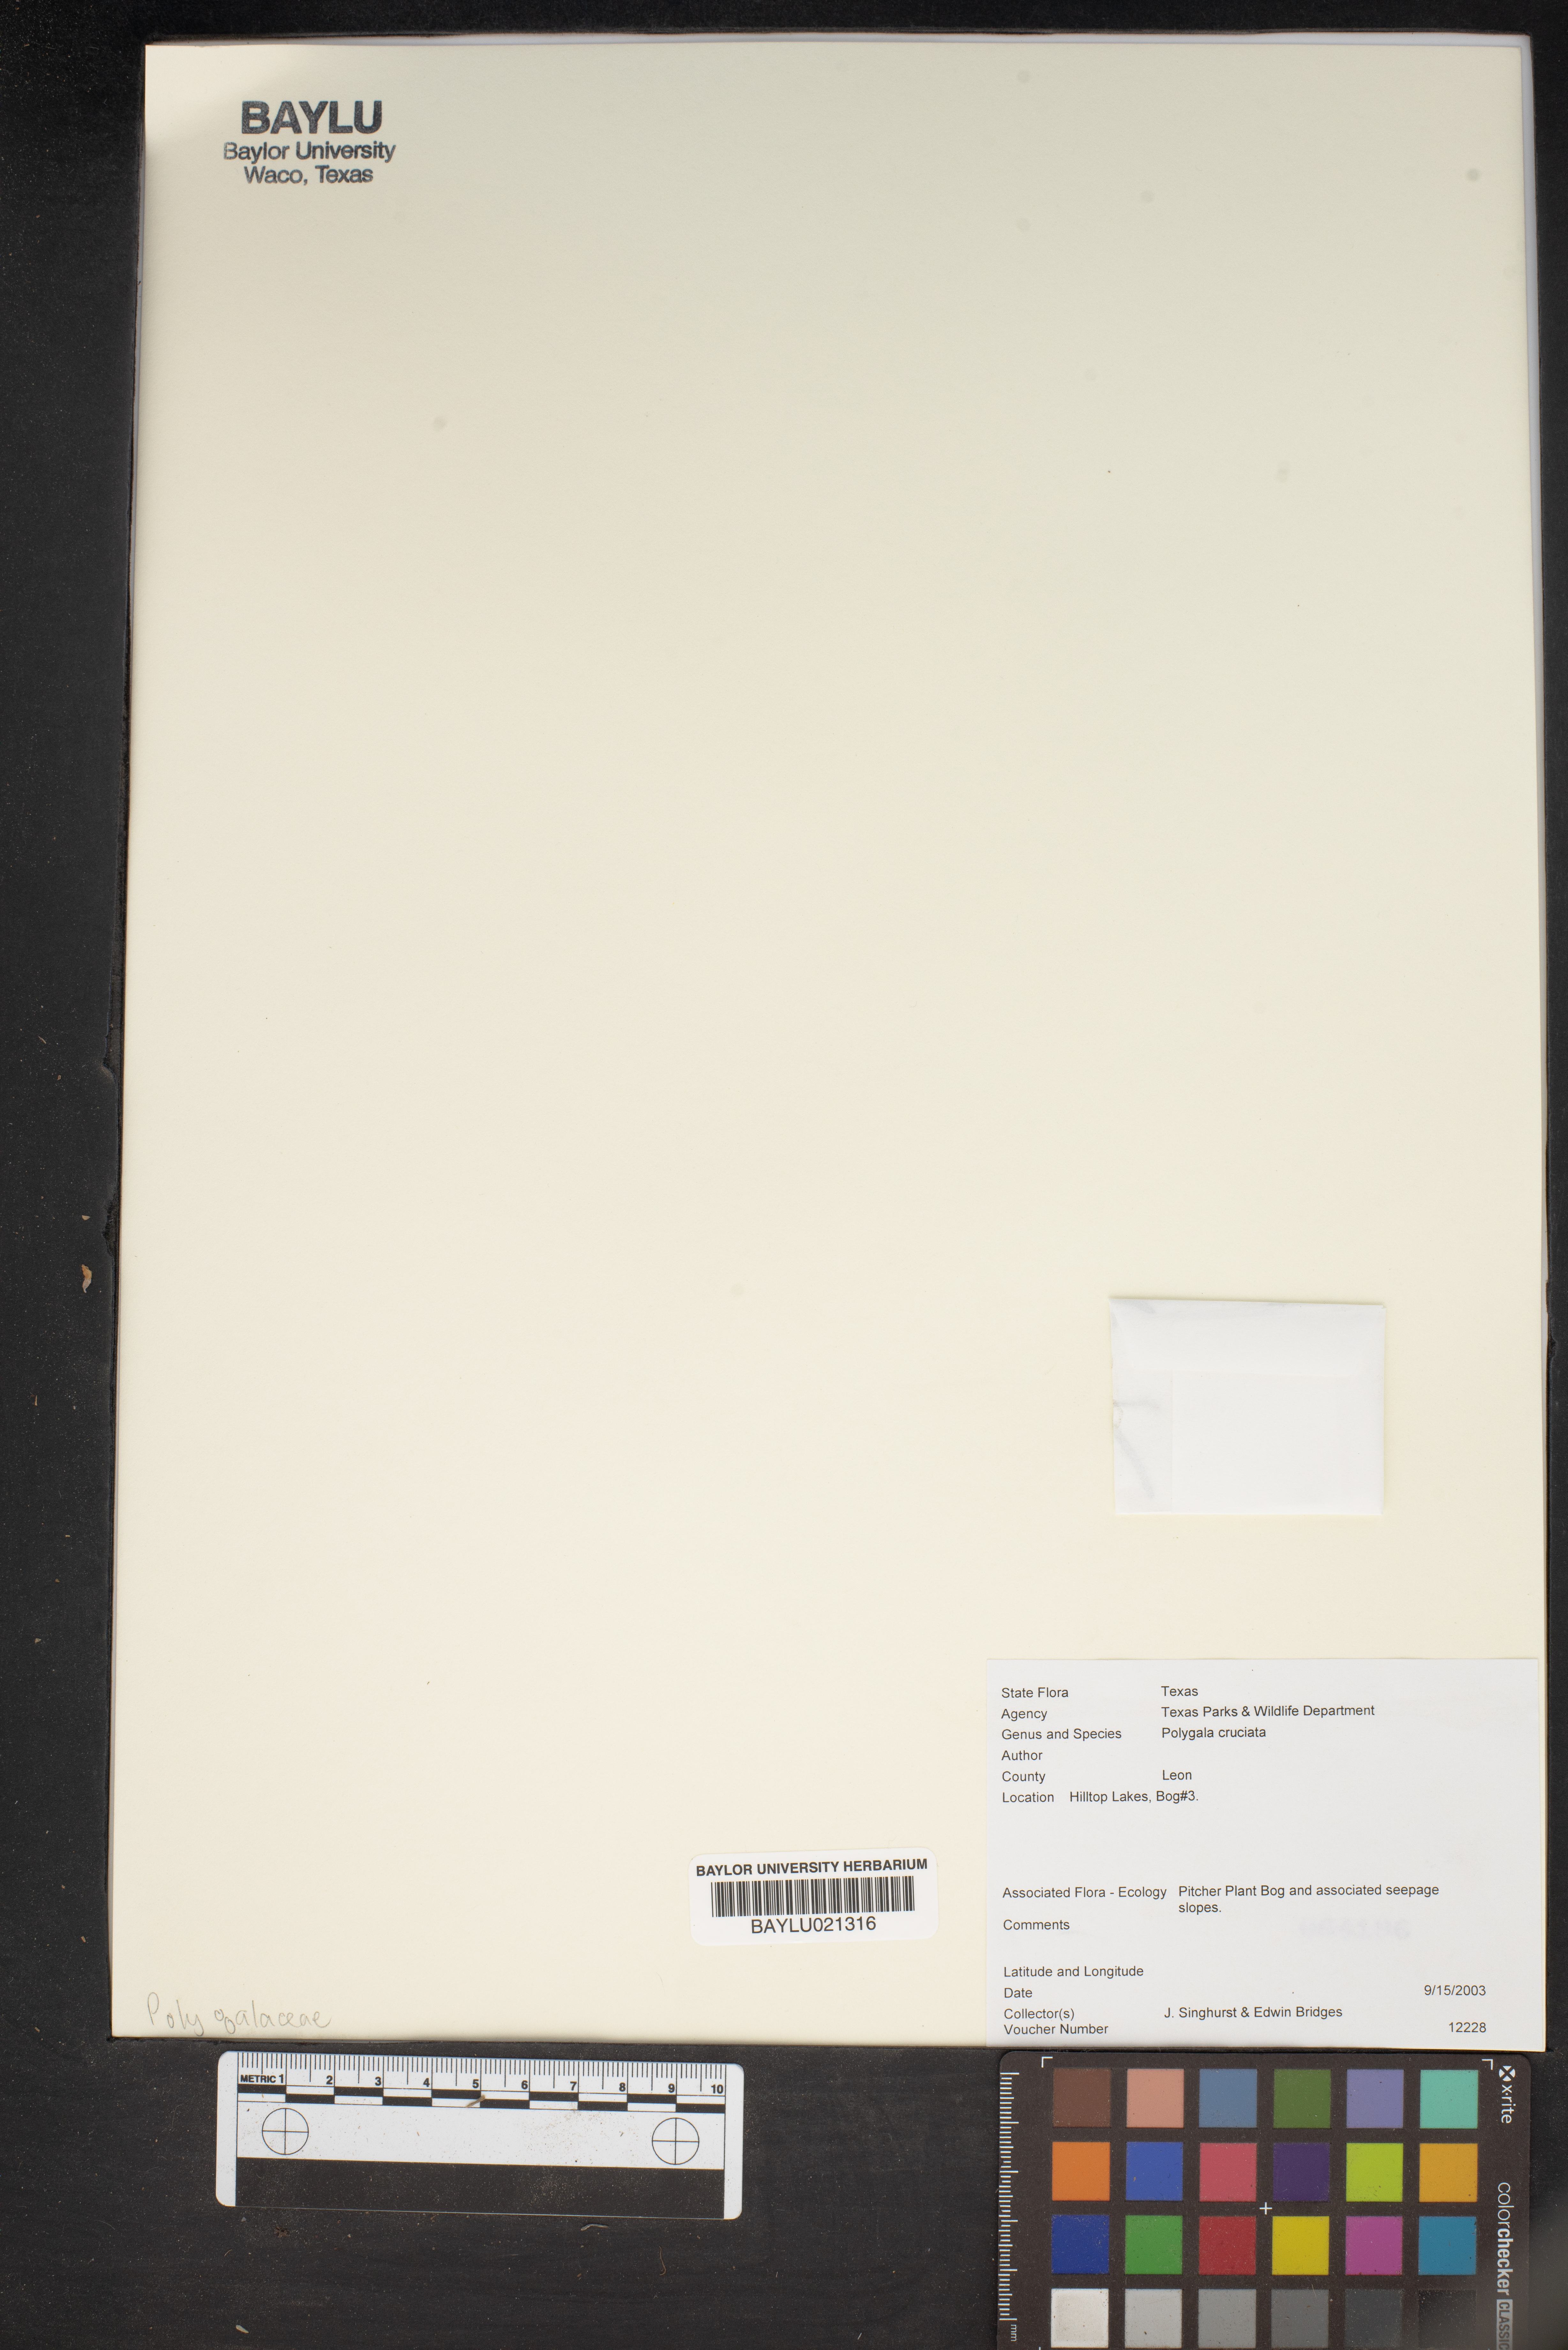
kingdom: Plantae
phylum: Tracheophyta
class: Magnoliopsida
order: Fabales
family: Polygalaceae
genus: Polygala
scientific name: Polygala cruciata
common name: Drumheads
